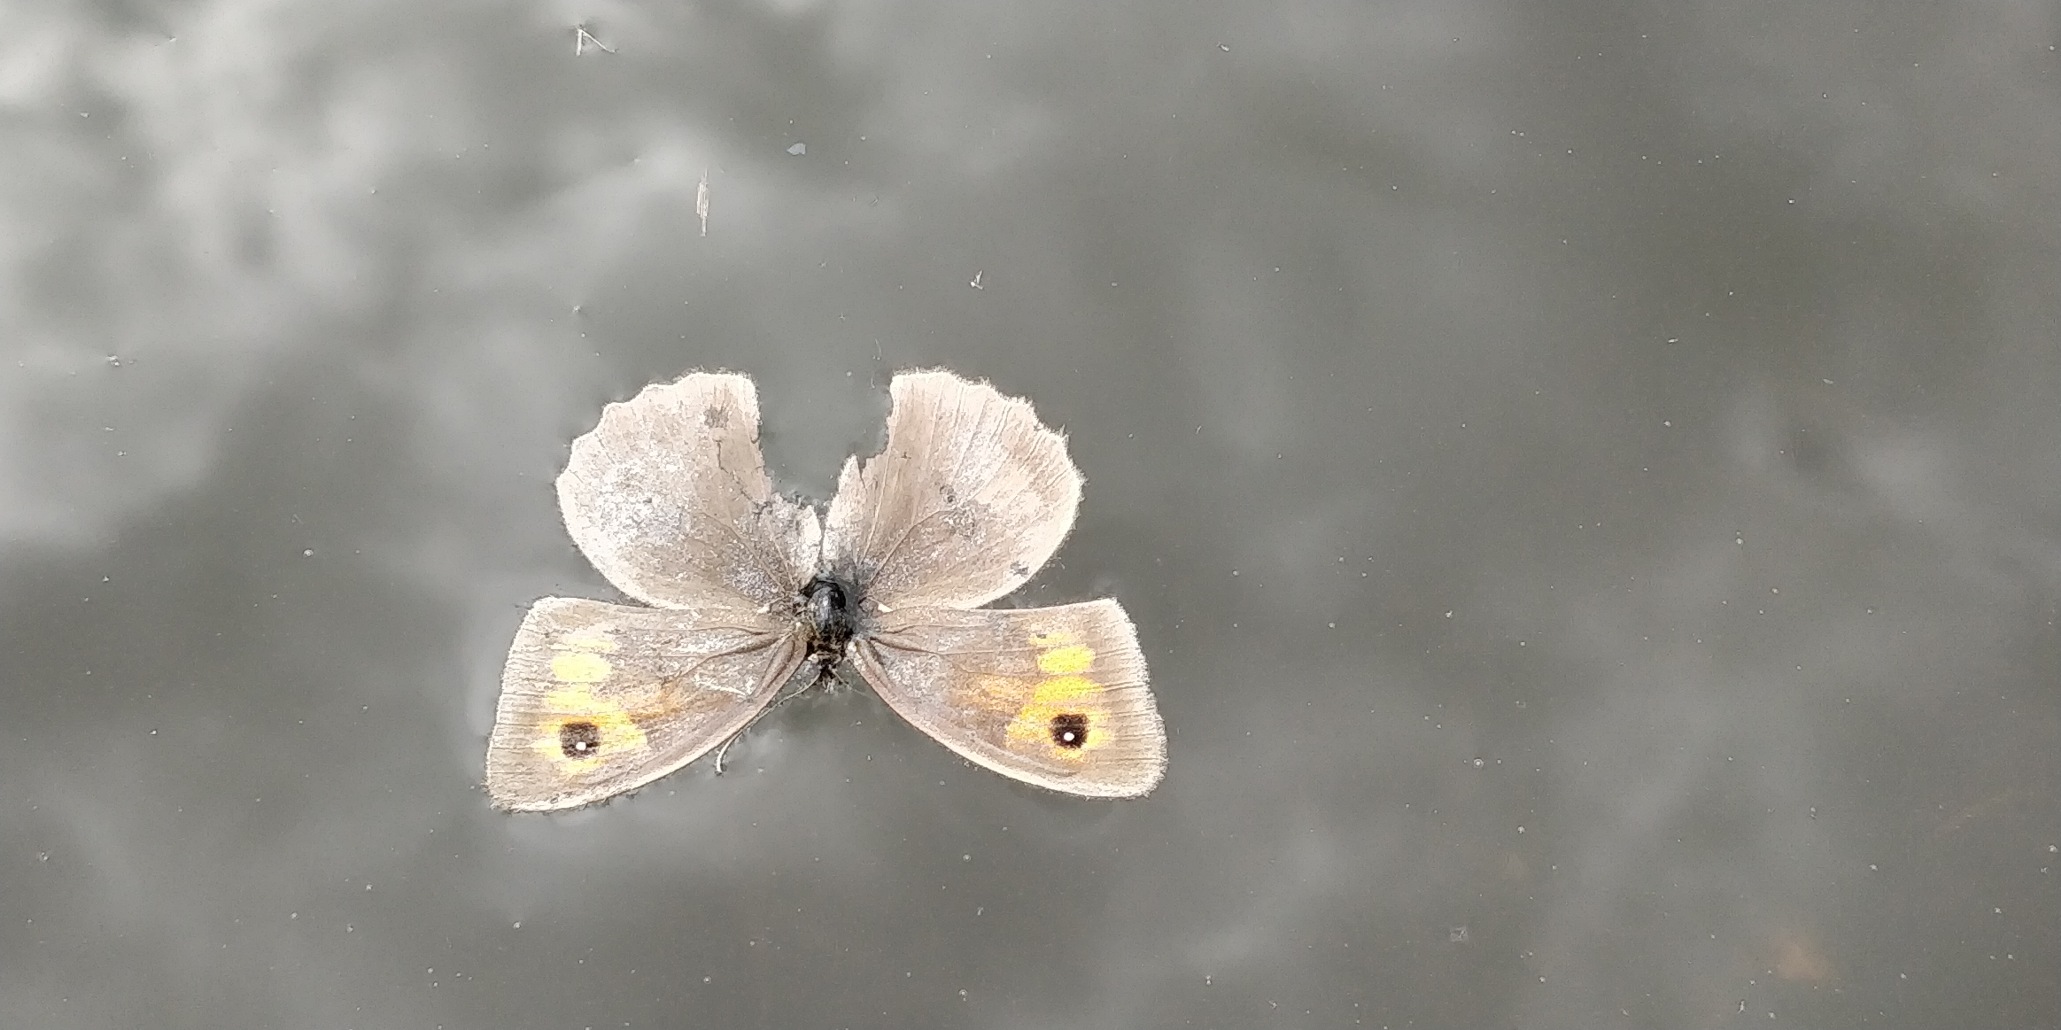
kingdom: Animalia
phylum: Arthropoda
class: Insecta
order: Lepidoptera
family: Nymphalidae
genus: Maniola
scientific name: Maniola jurtina
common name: Græsrandøje
